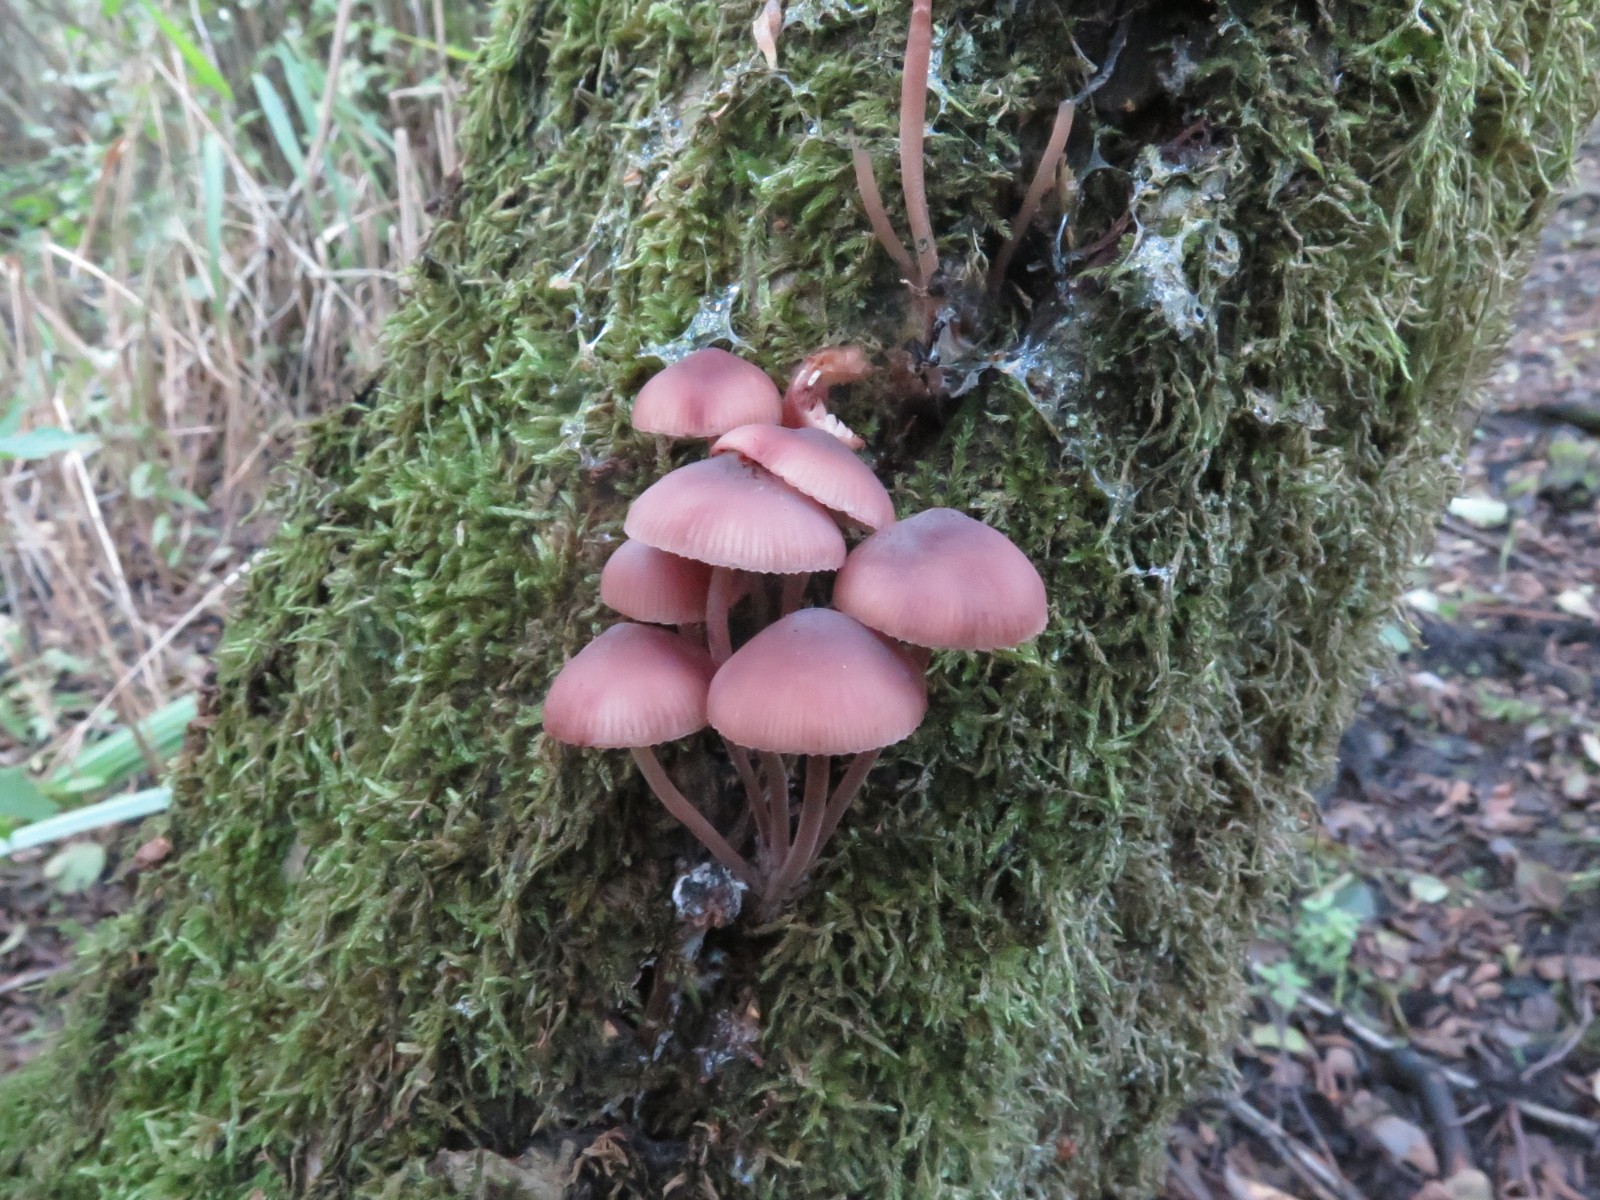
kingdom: Fungi
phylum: Basidiomycota
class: Agaricomycetes
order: Agaricales
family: Mycenaceae
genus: Mycena
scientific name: Mycena haematopus
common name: blødende huesvamp
